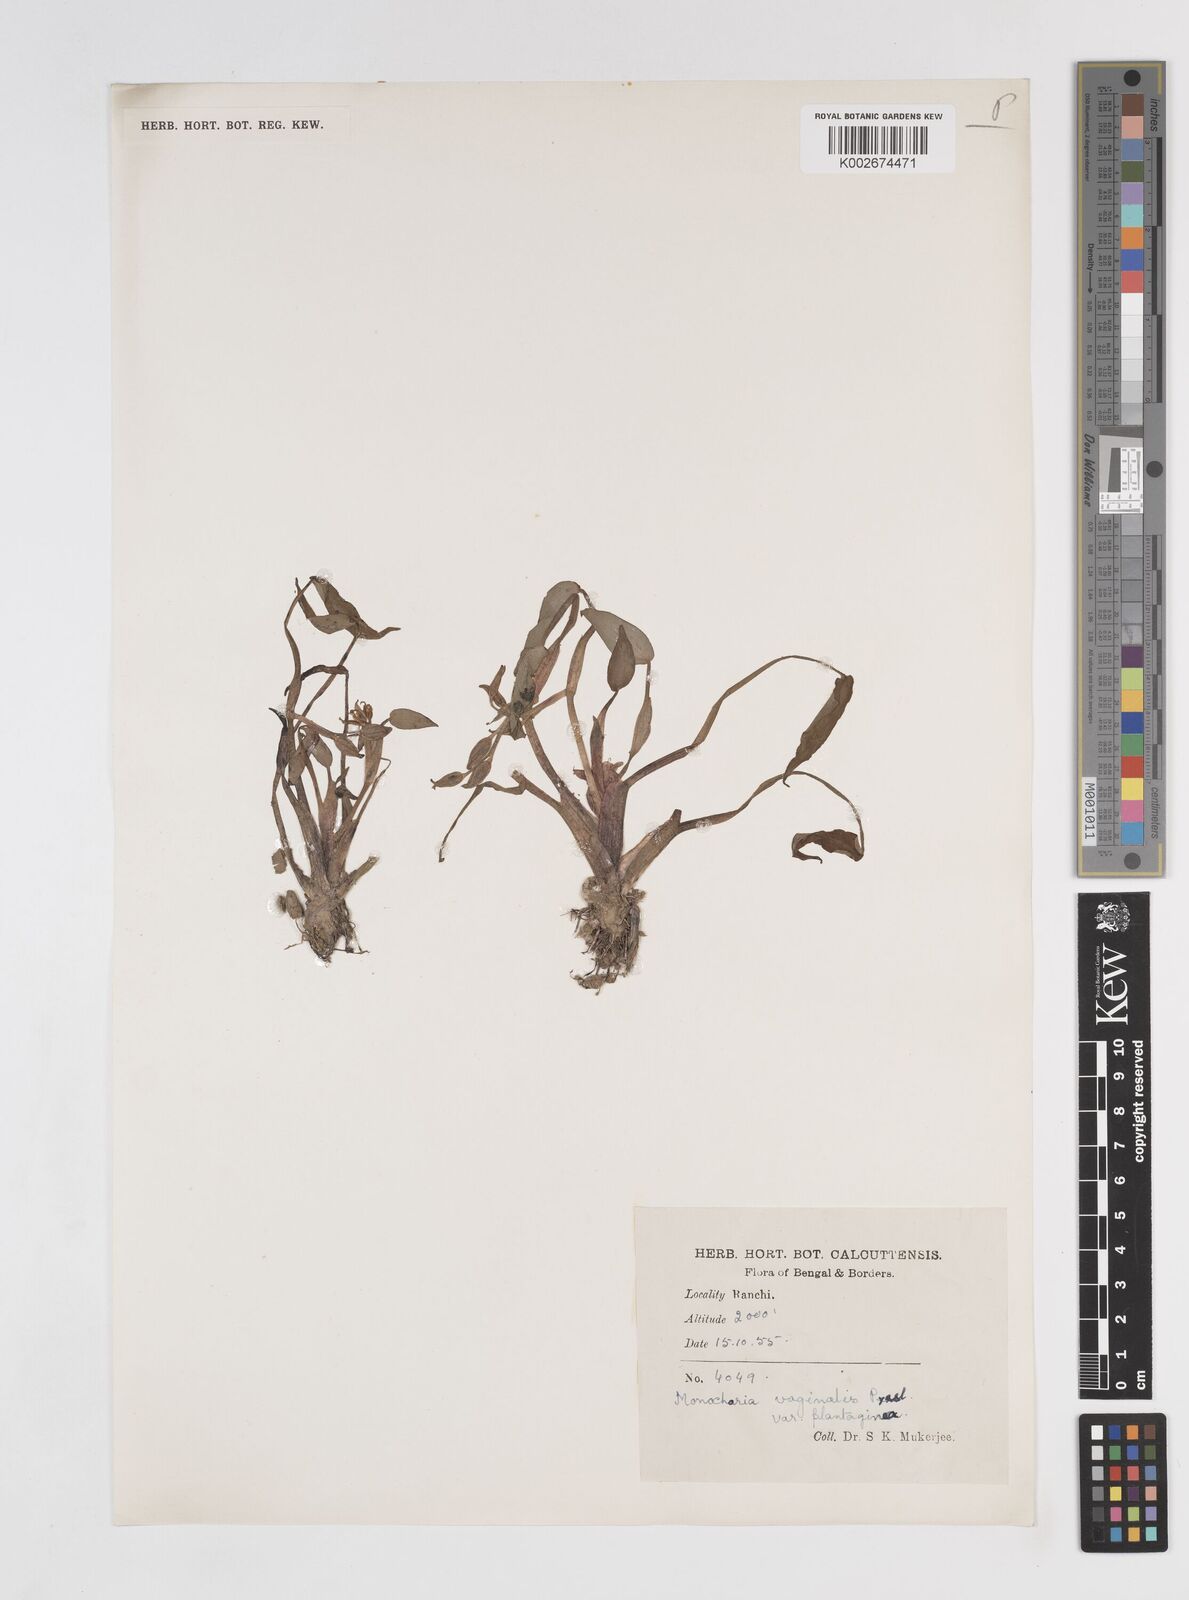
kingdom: Plantae
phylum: Tracheophyta
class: Liliopsida
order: Commelinales
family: Pontederiaceae
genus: Pontederia
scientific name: Pontederia vaginalis
